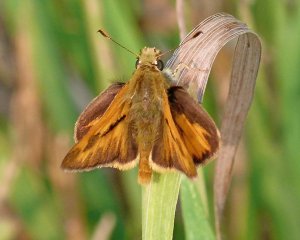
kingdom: Animalia
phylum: Arthropoda
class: Insecta
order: Lepidoptera
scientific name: Lepidoptera
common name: Butterflies
